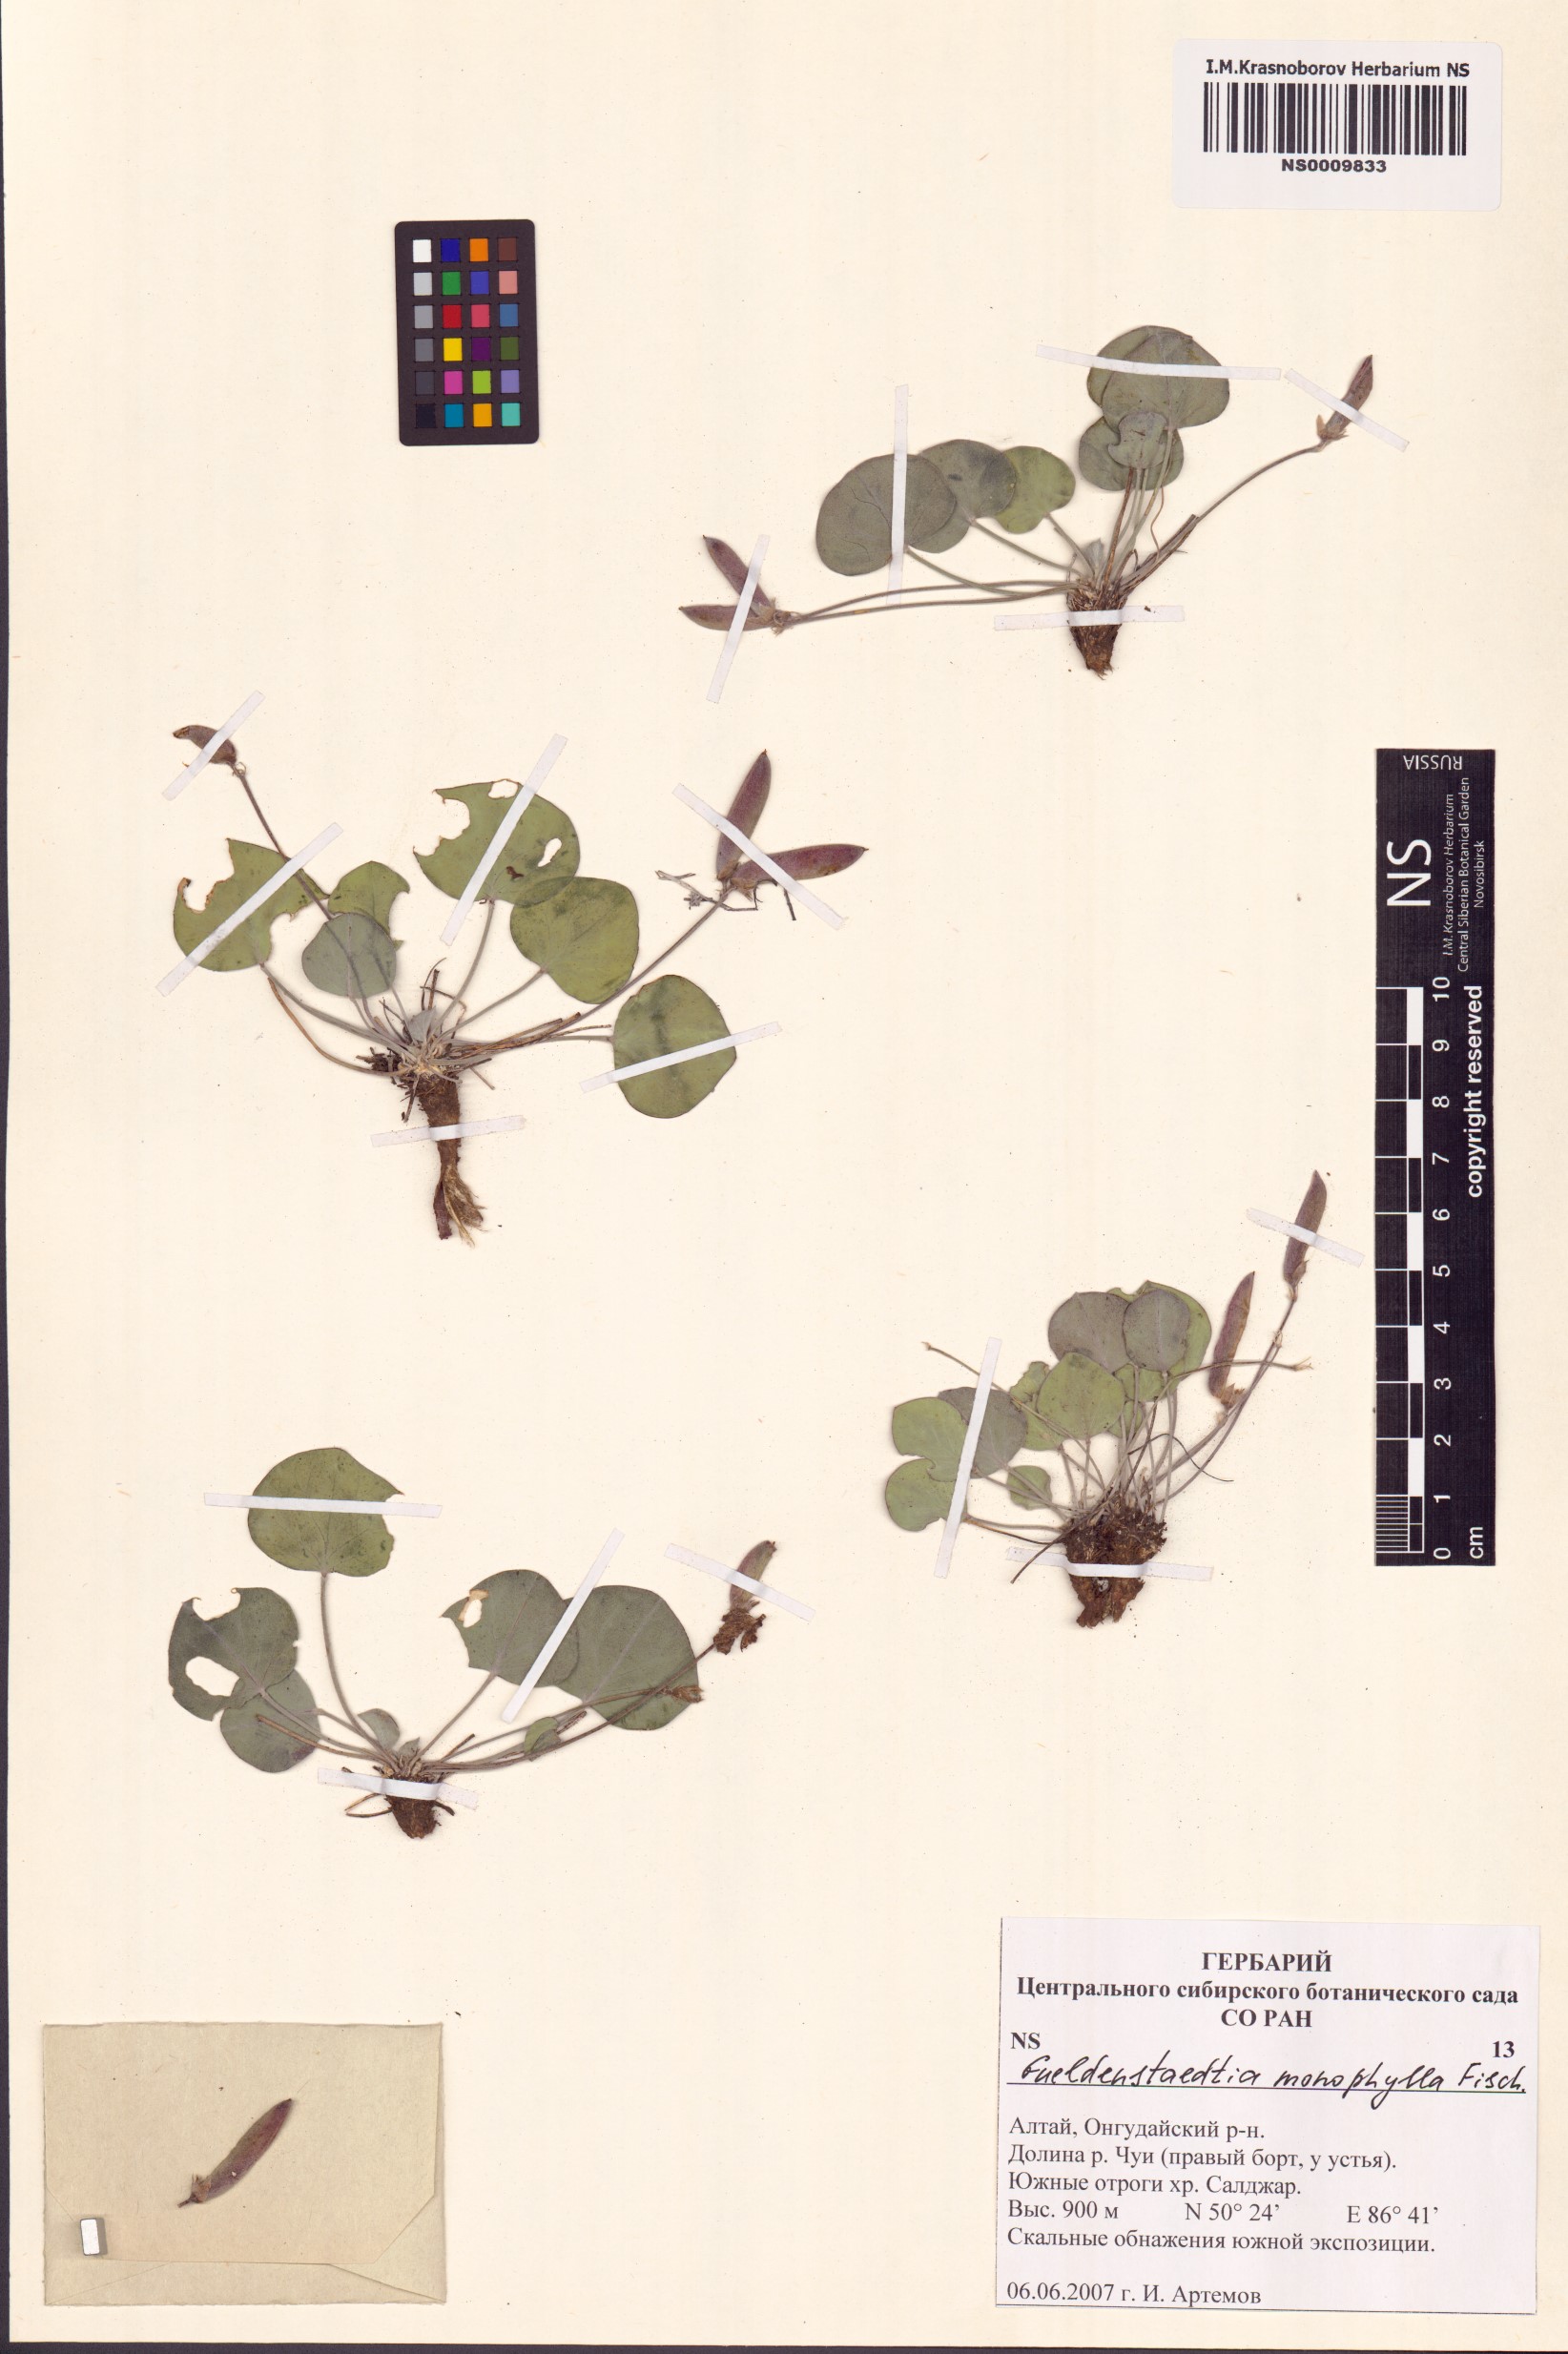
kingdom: Plantae
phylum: Tracheophyta
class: Magnoliopsida
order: Fabales
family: Fabaceae
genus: Gueldenstaedtia
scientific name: Gueldenstaedtia monophylla
